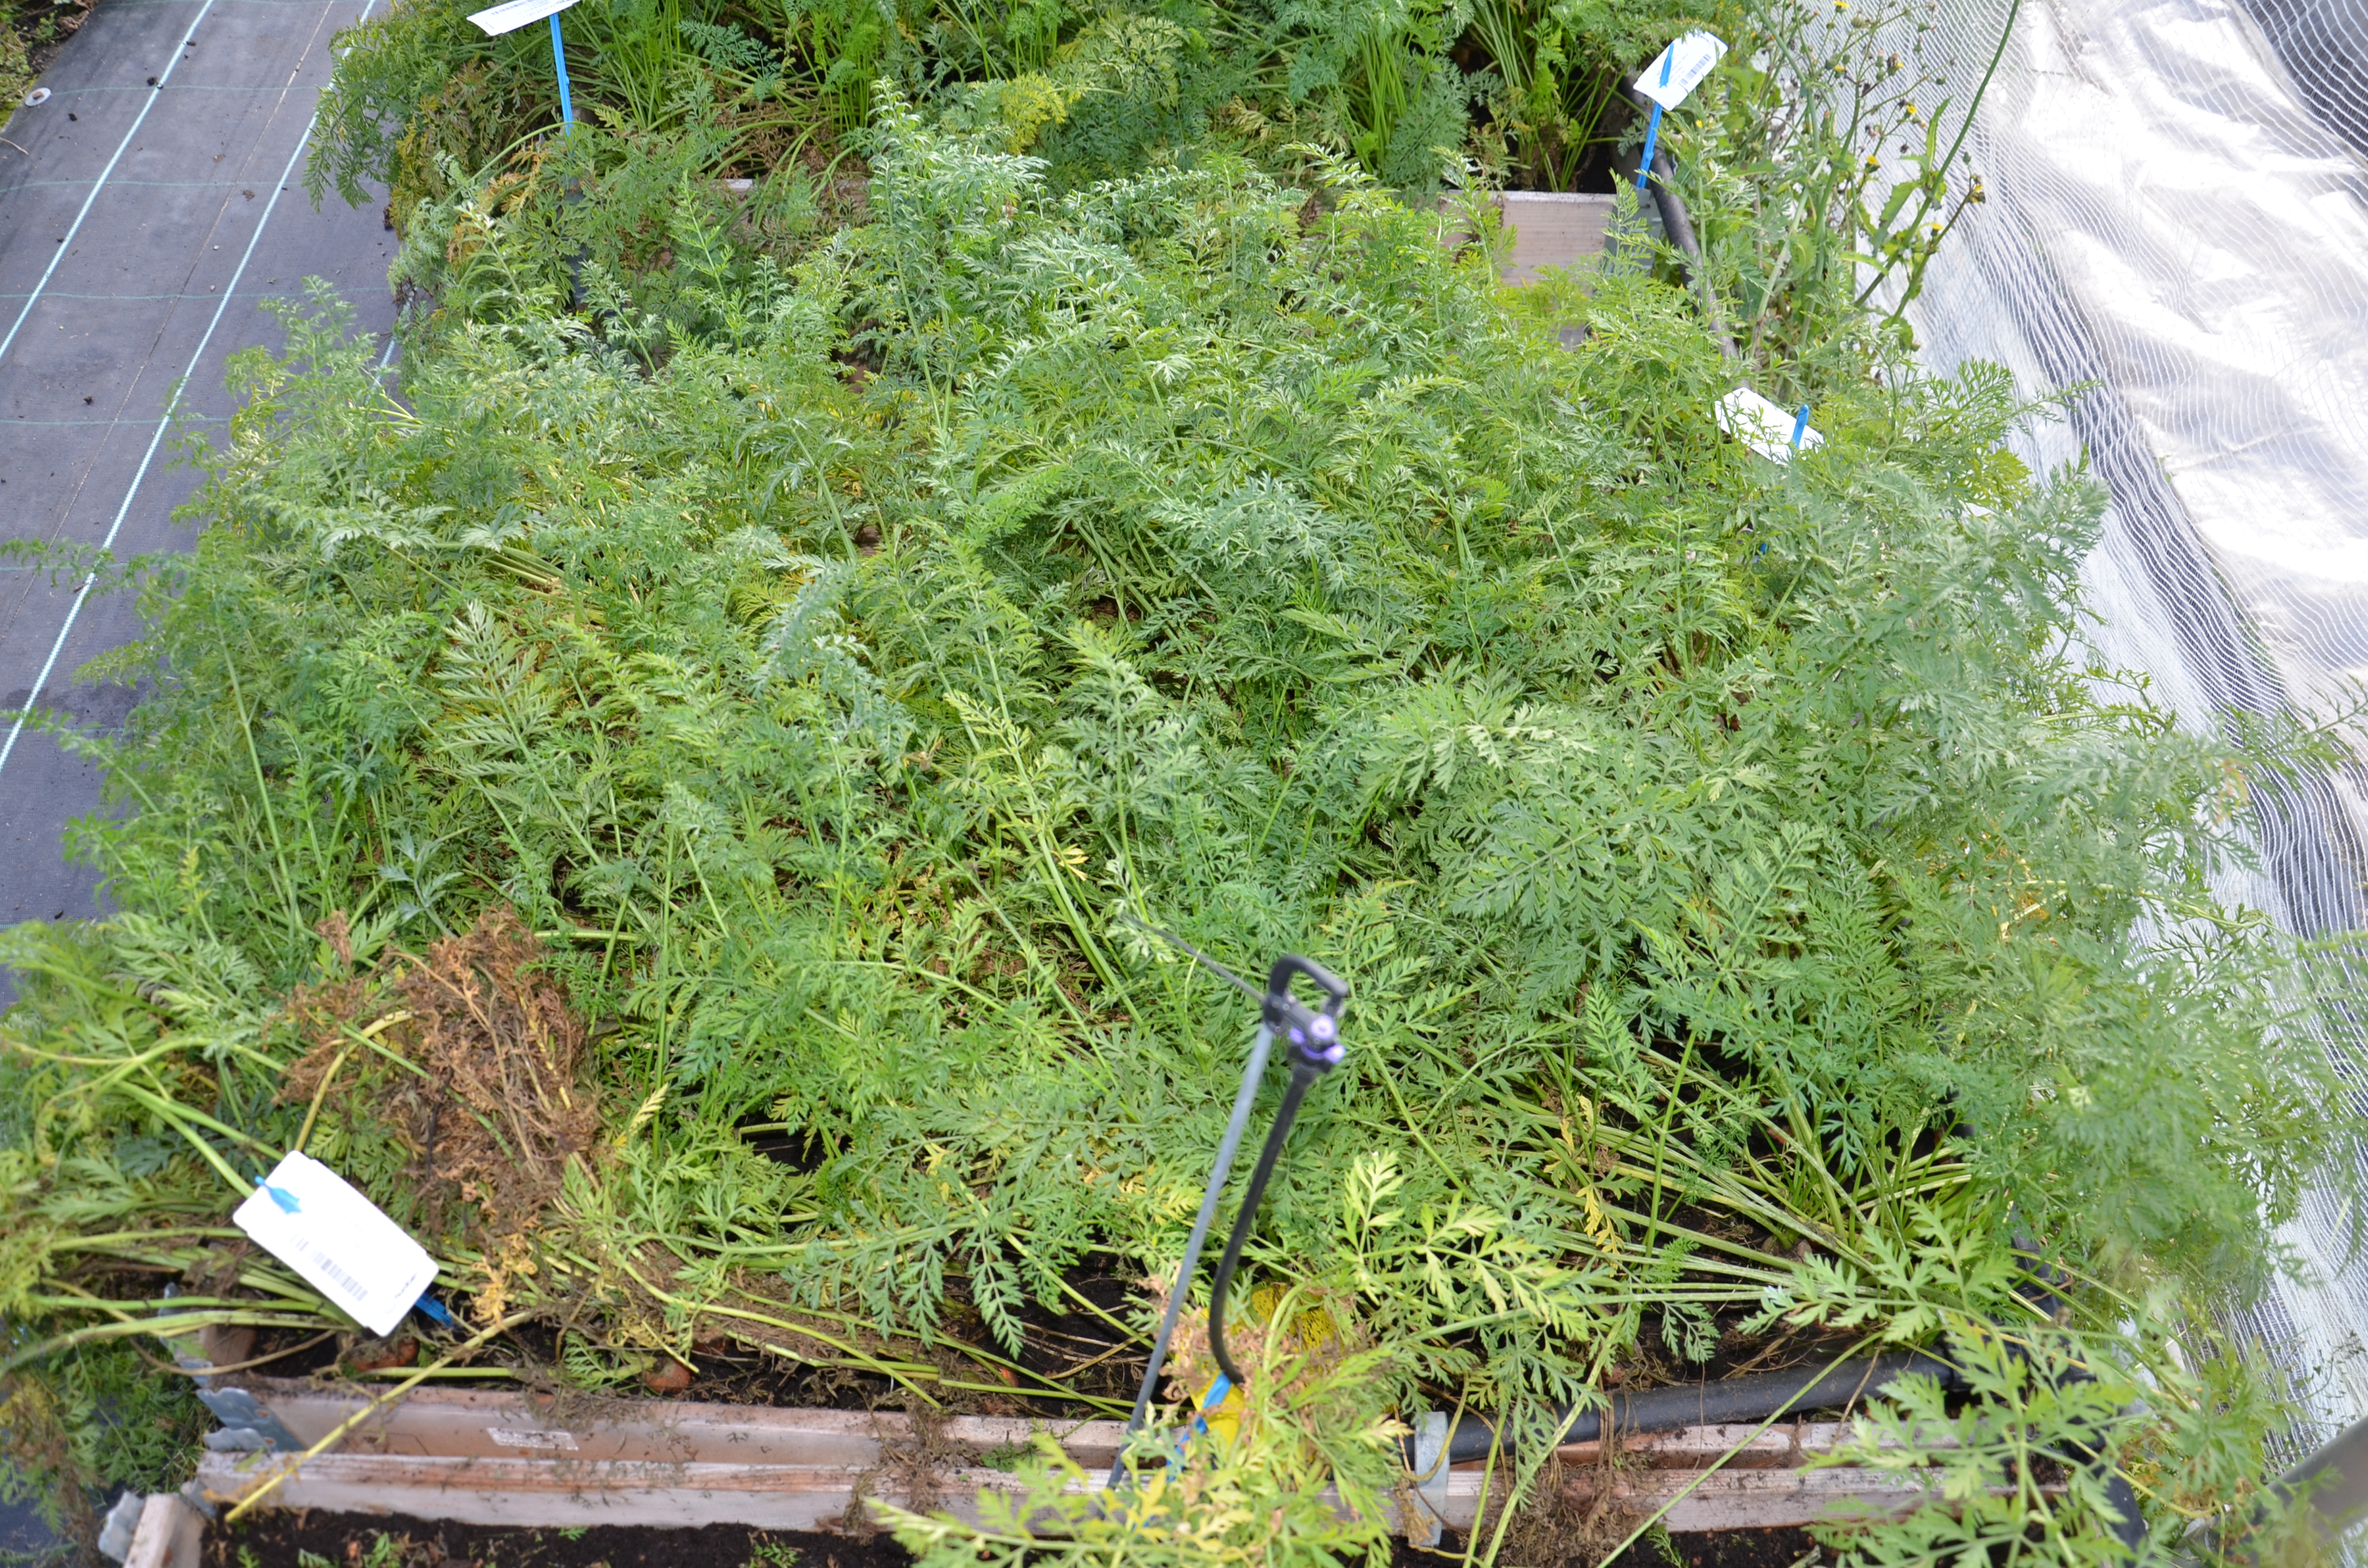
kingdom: Plantae
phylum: Tracheophyta
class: Magnoliopsida
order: Apiales
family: Apiaceae
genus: Daucus
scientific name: Daucus carota
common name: Wild carrot
